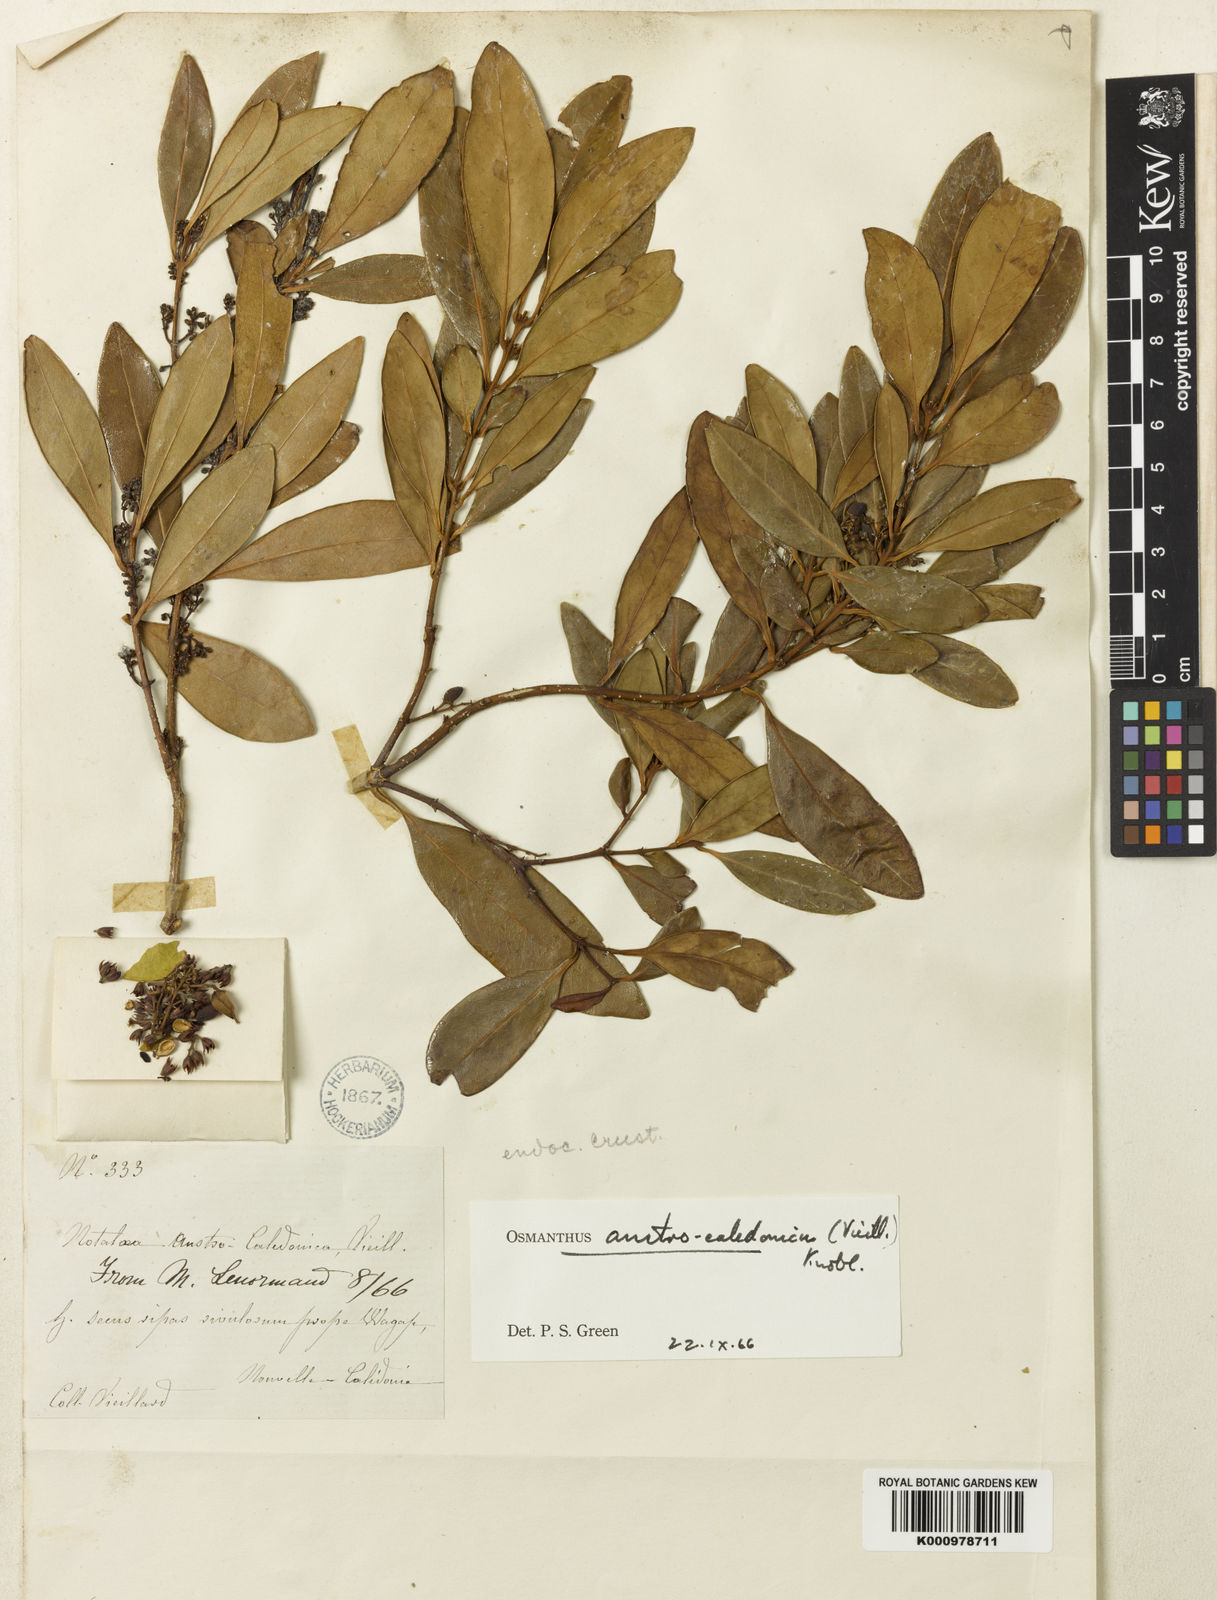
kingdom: Plantae
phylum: Tracheophyta
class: Magnoliopsida
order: Lamiales
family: Oleaceae
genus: Osmanthus
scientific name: Osmanthus austrocaledonicus
